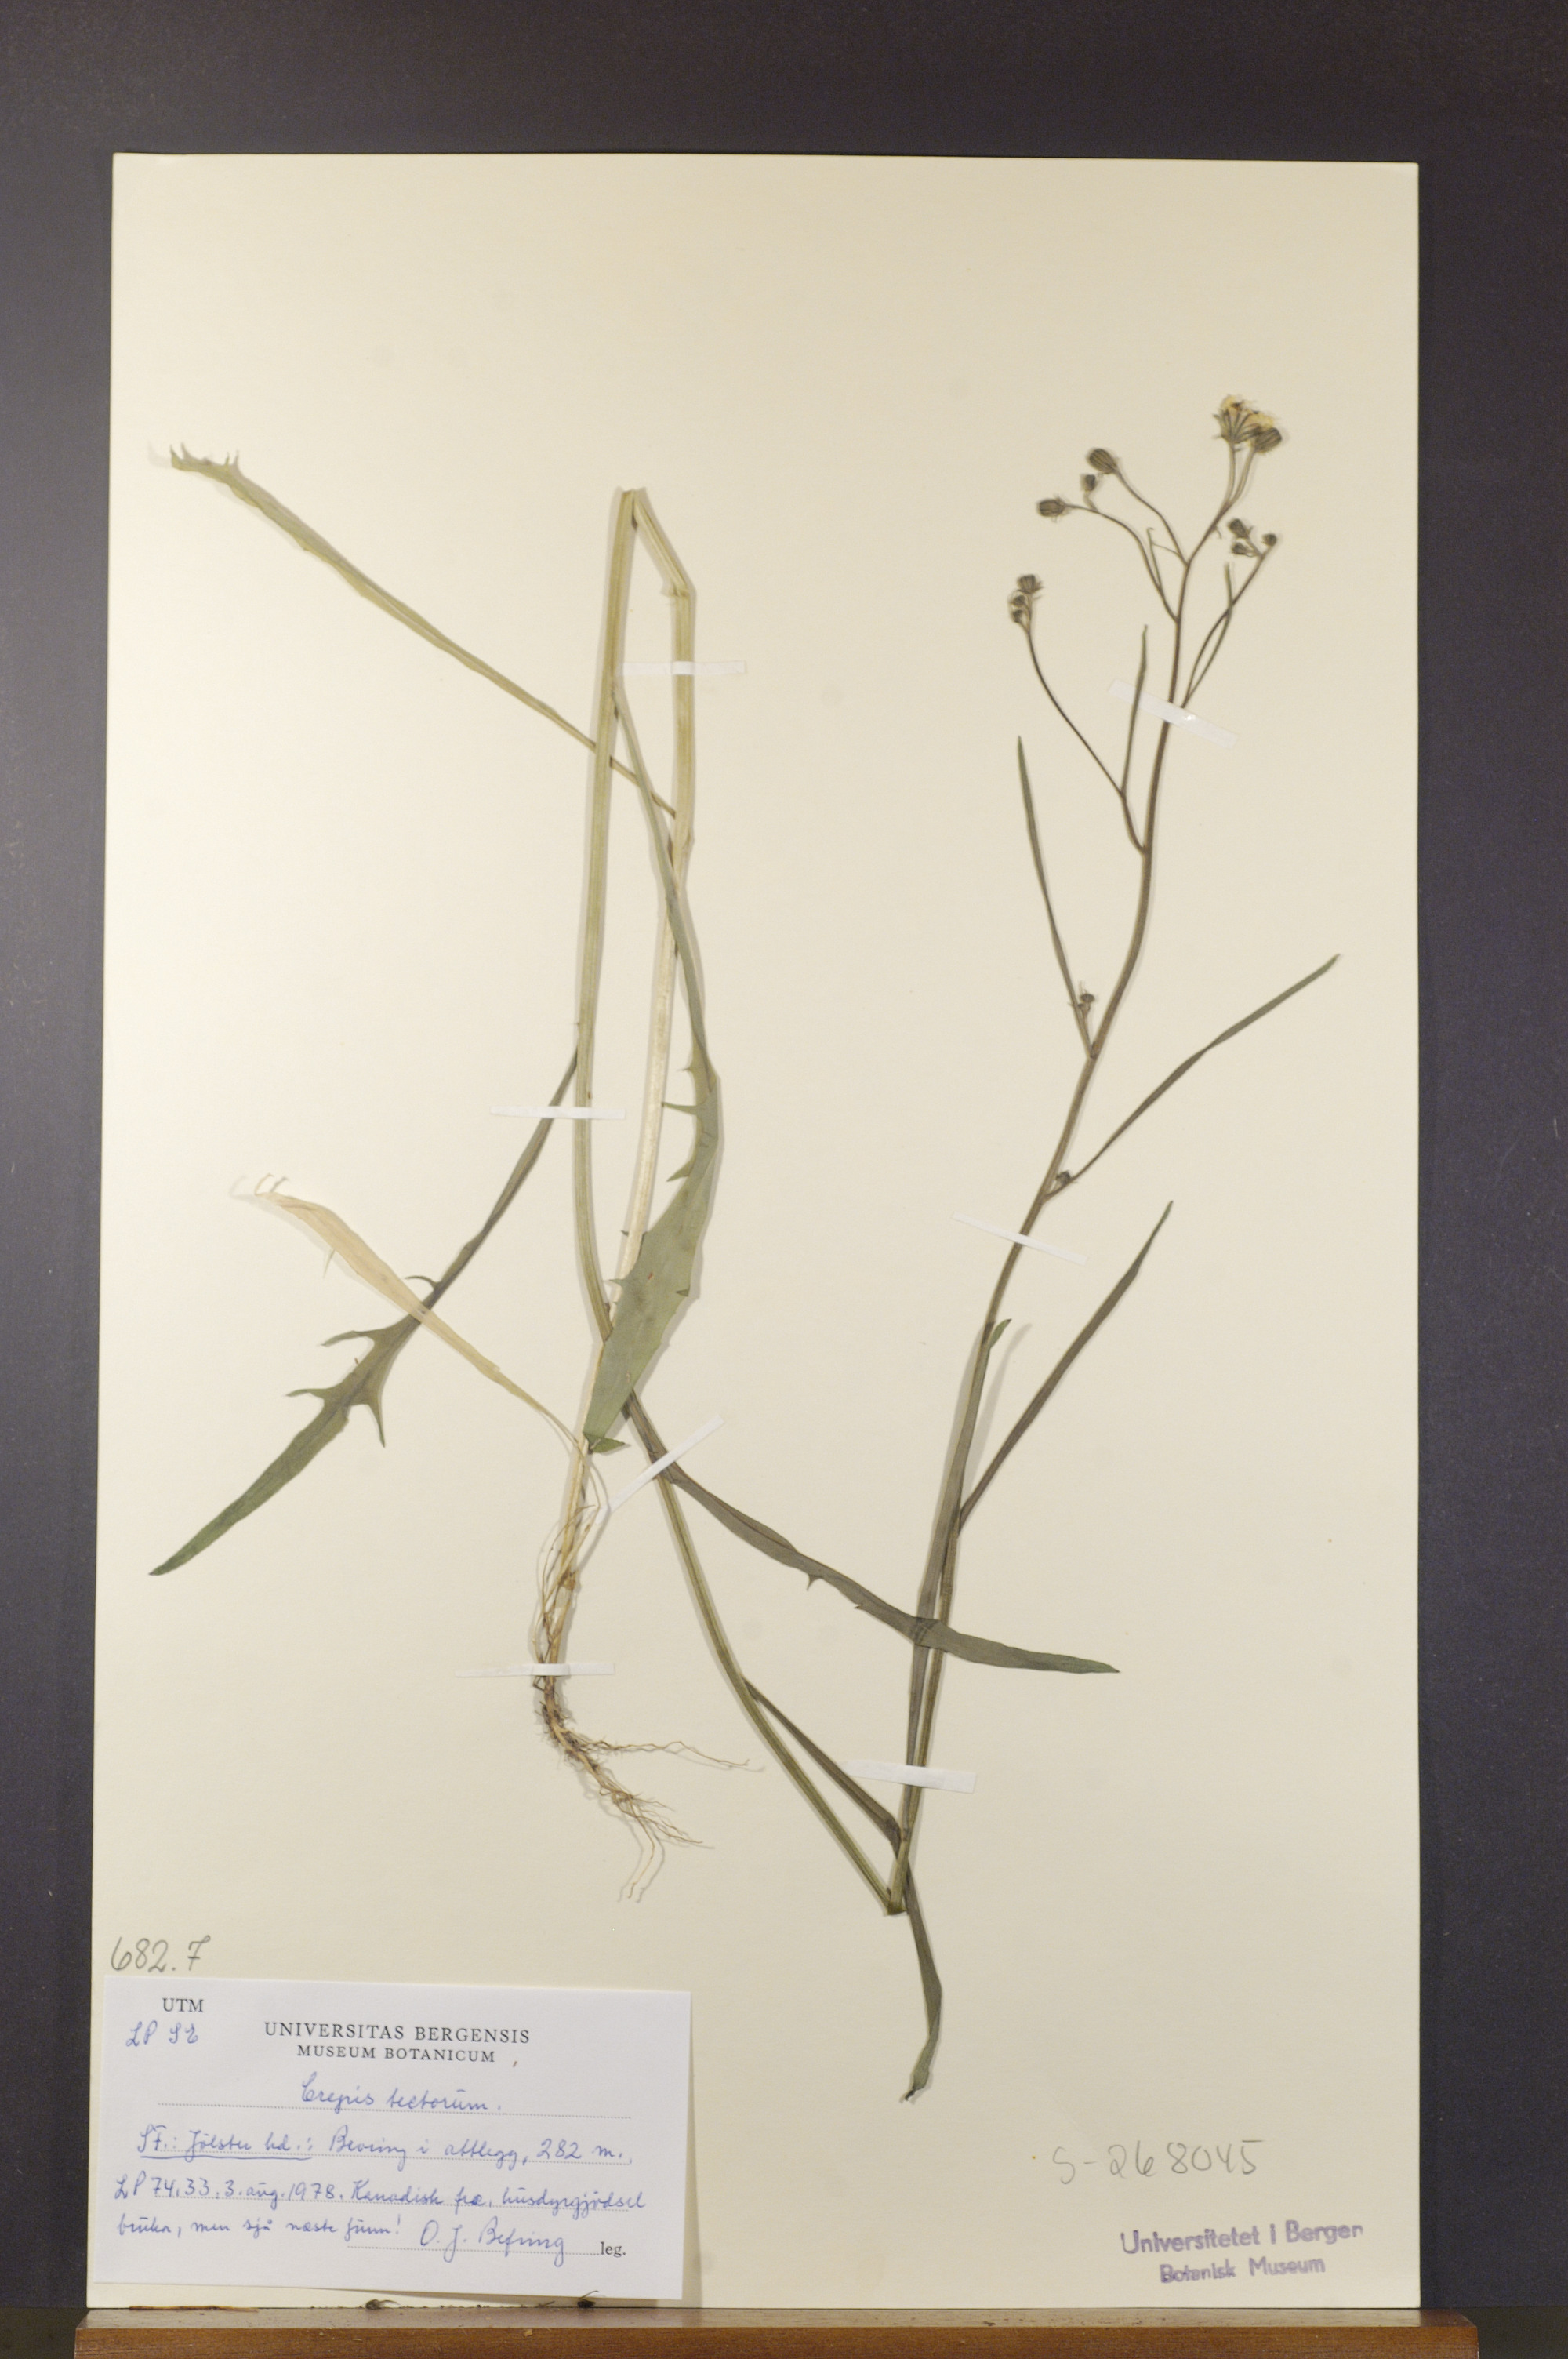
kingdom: Plantae
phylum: Tracheophyta
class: Magnoliopsida
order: Asterales
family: Asteraceae
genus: Crepis
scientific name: Crepis tectorum
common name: Narrow-leaved hawk's-beard
